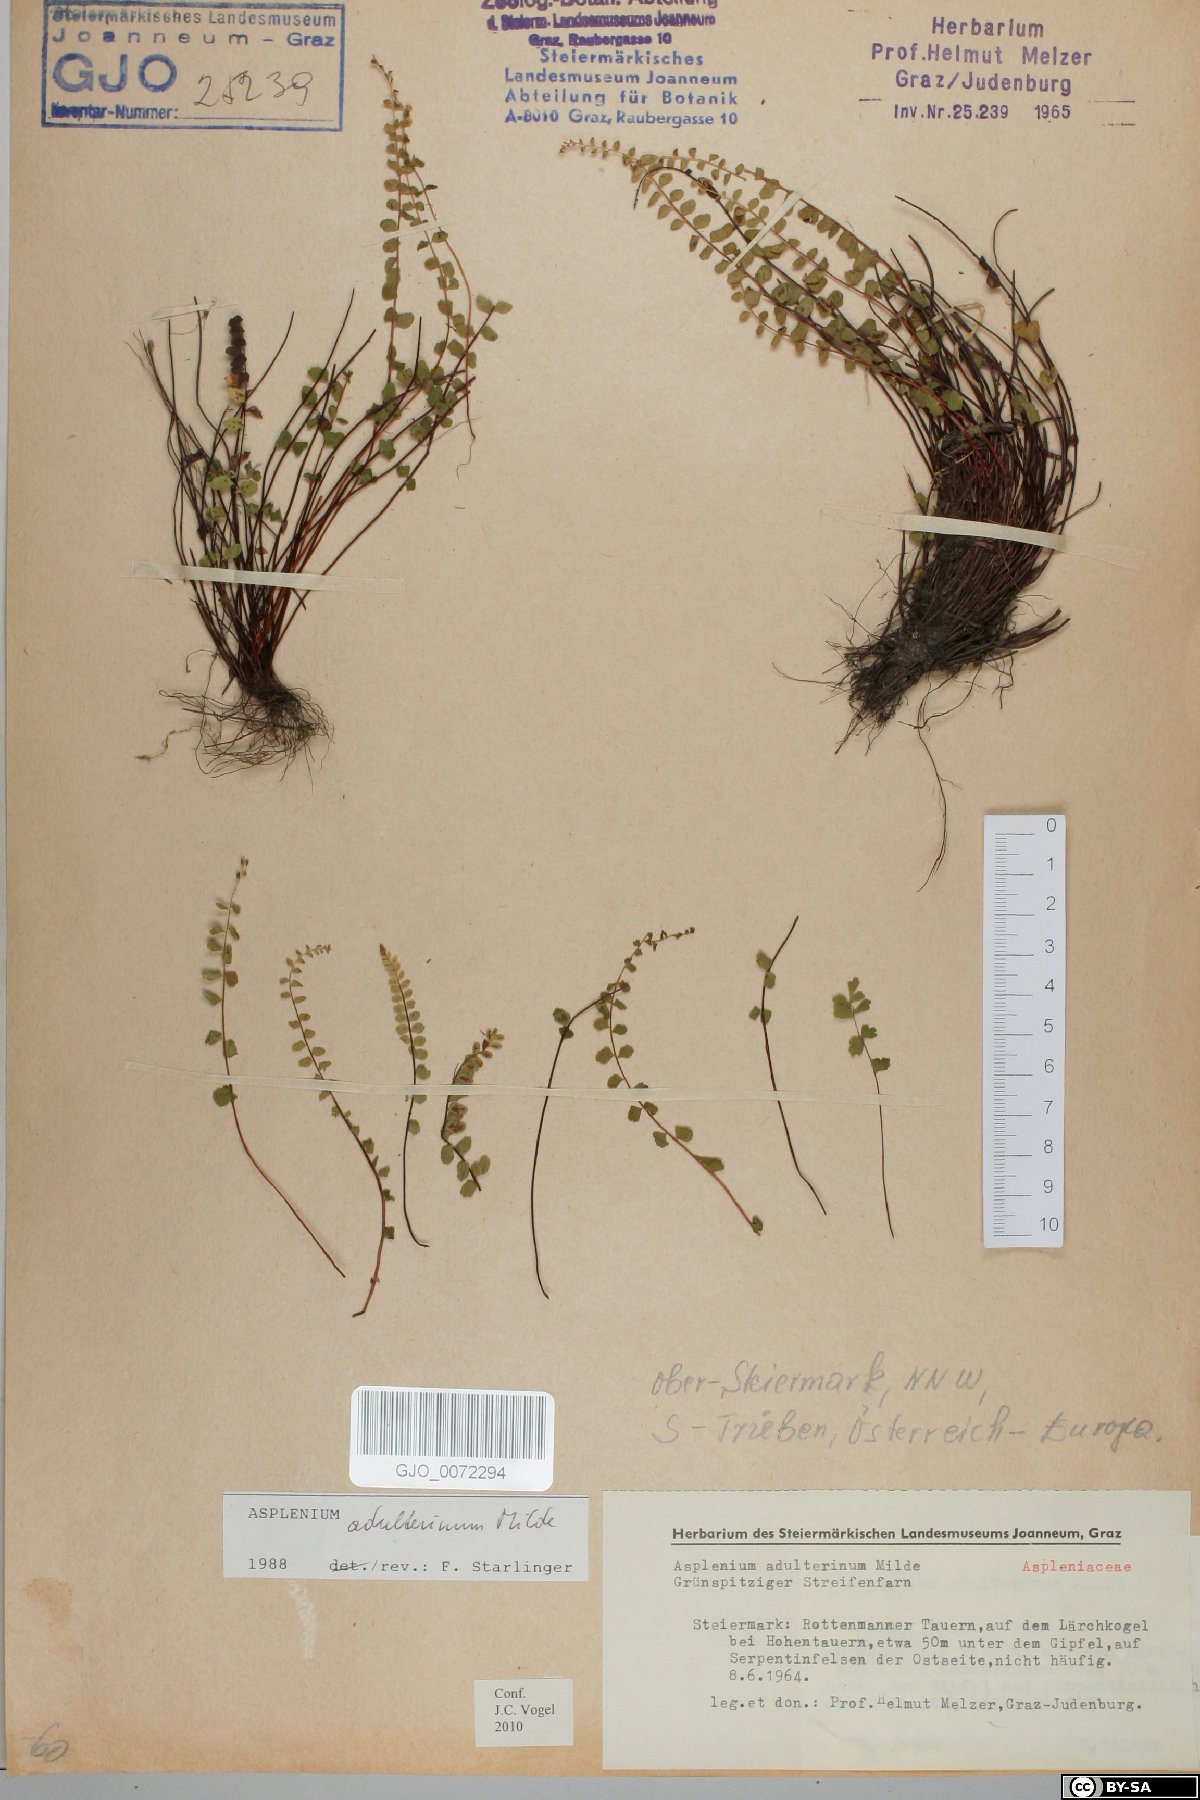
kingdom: Plantae
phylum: Tracheophyta
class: Polypodiopsida
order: Polypodiales
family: Aspleniaceae
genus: Asplenium
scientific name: Asplenium adulterinum
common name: Adulterated spleenwort
